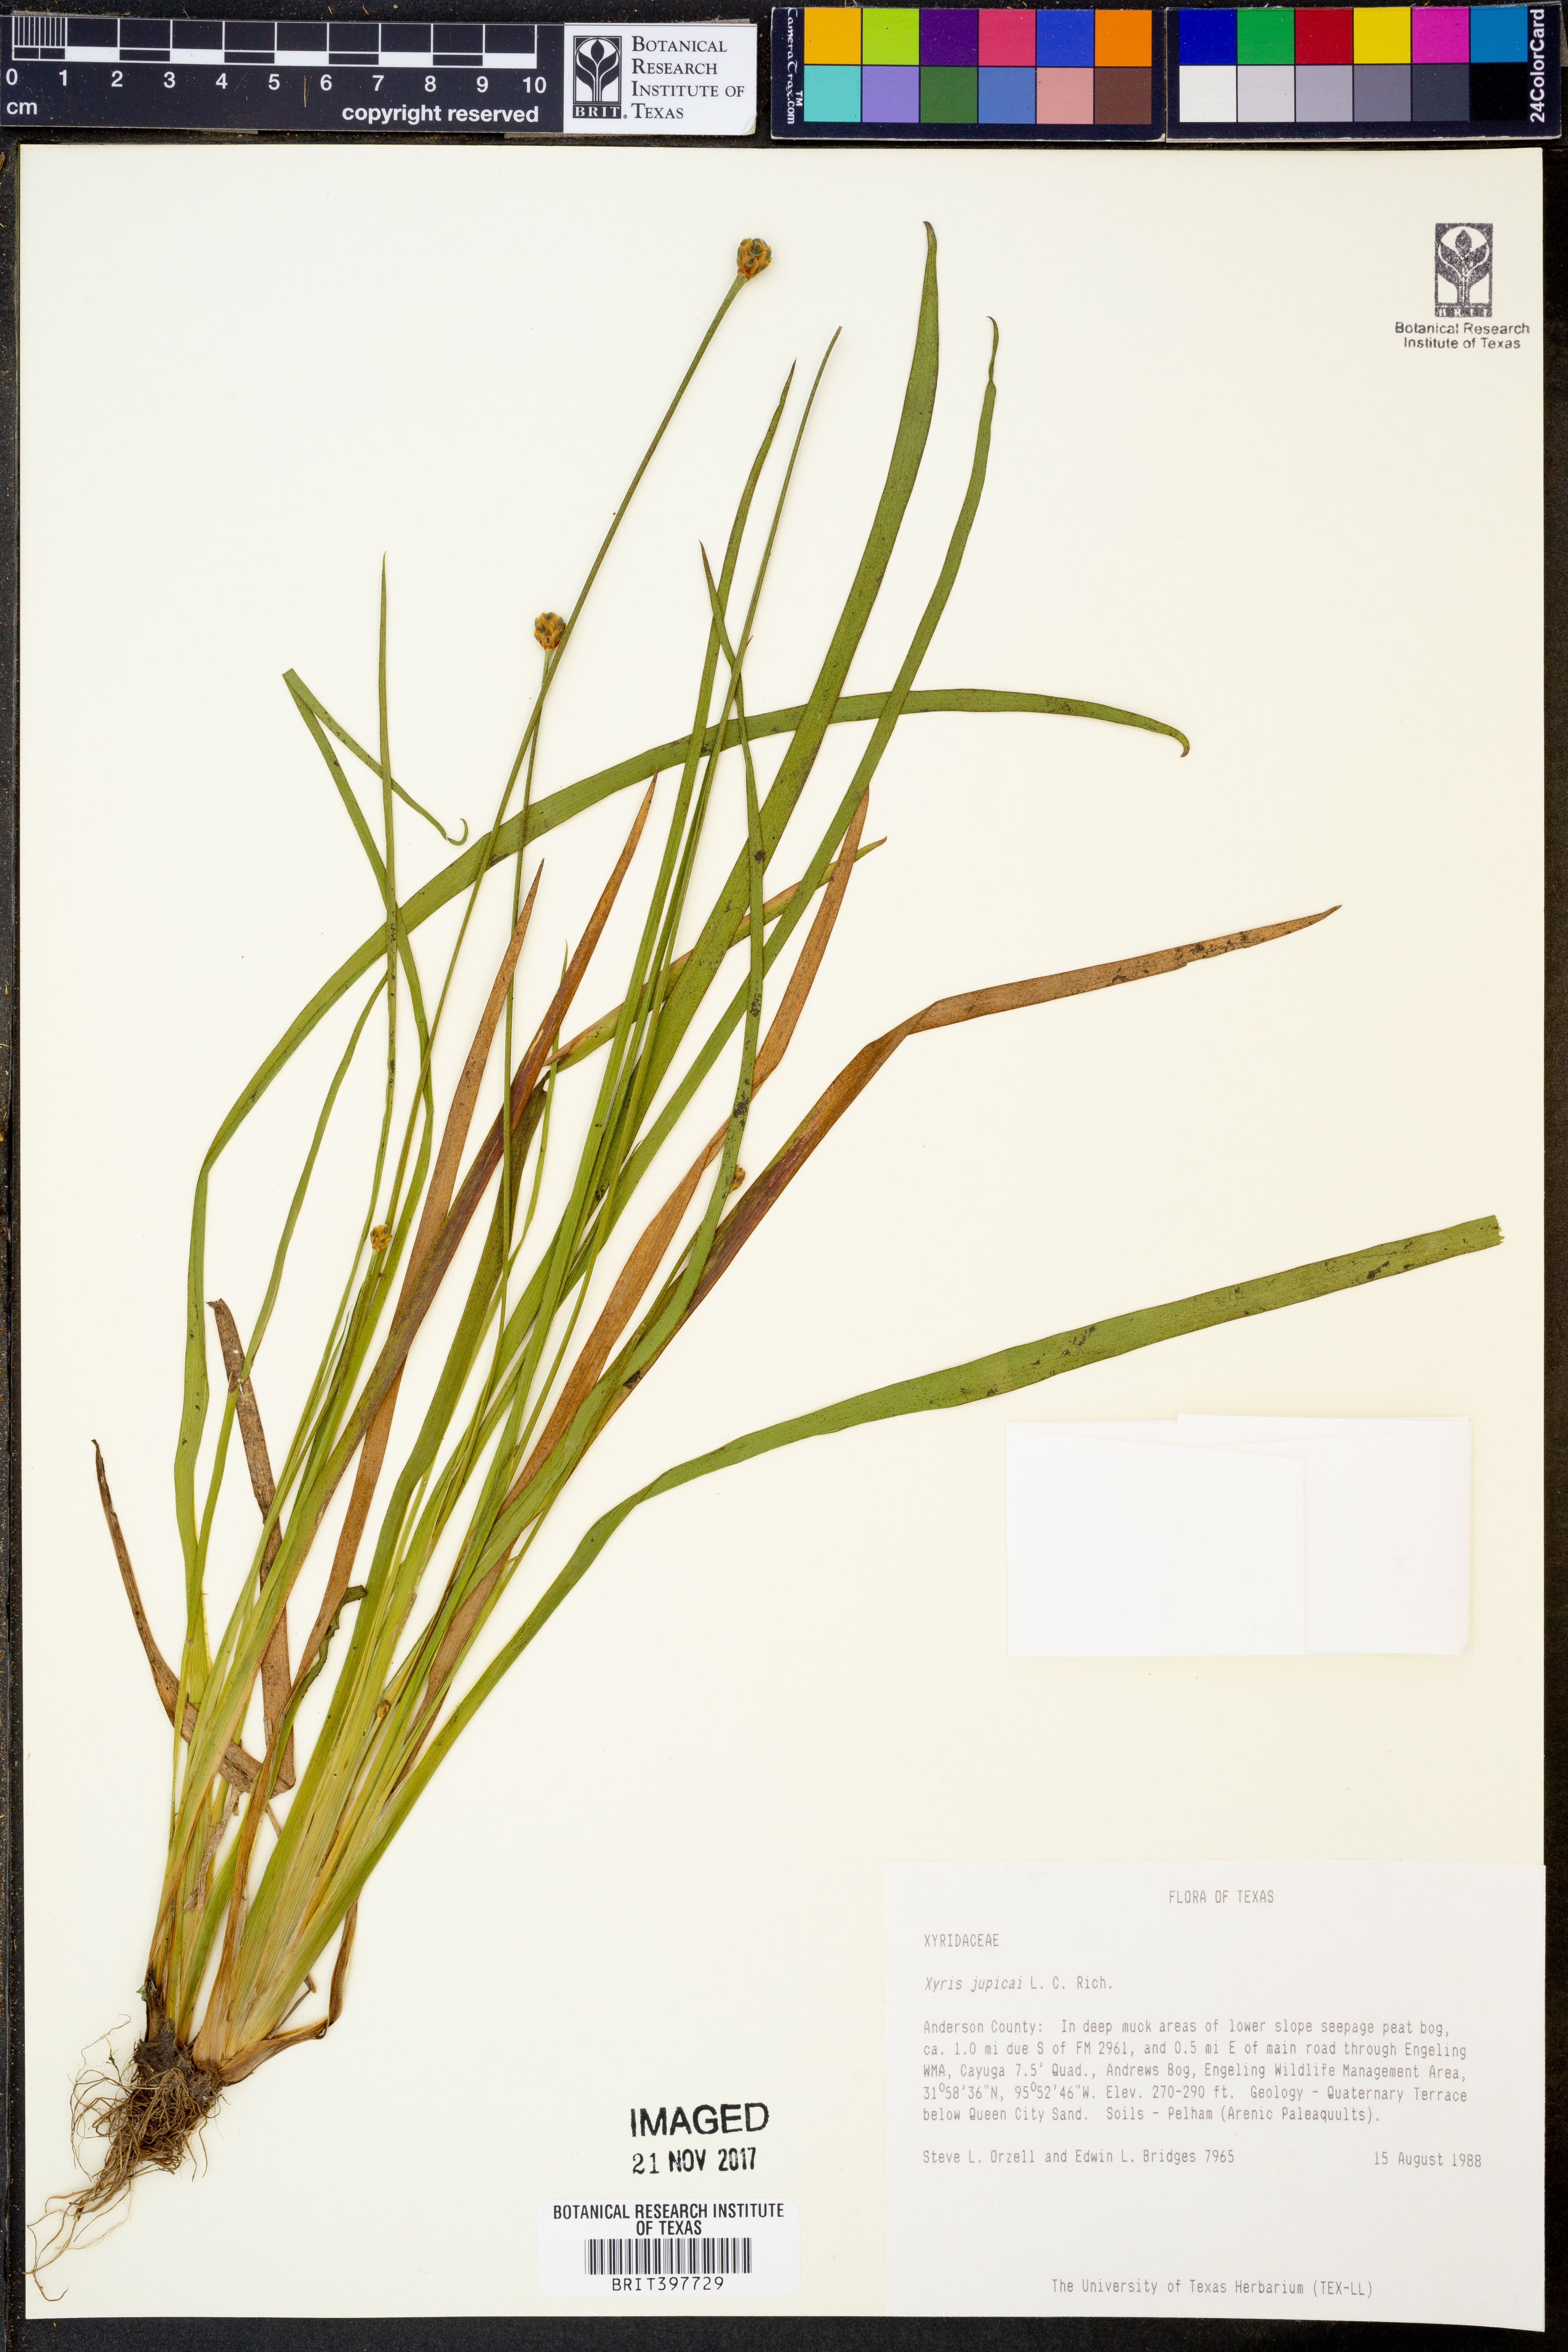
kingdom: Plantae
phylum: Tracheophyta
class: Liliopsida
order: Poales
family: Xyridaceae
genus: Xyris
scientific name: Xyris jupicai
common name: Richard's yelloweyed grass
